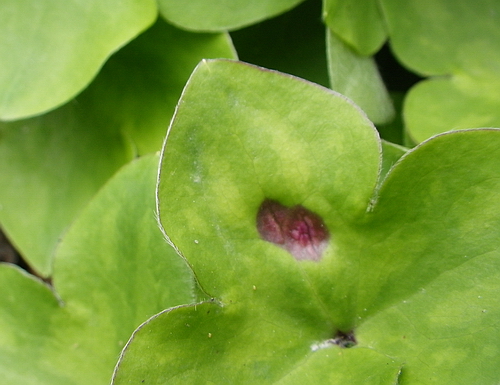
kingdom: Fungi
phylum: Basidiomycota
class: Ustilaginomycetes
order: Urocystidales
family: Urocystidaceae
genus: Urocystis
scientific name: Urocystis anemones
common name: anemone-brand
